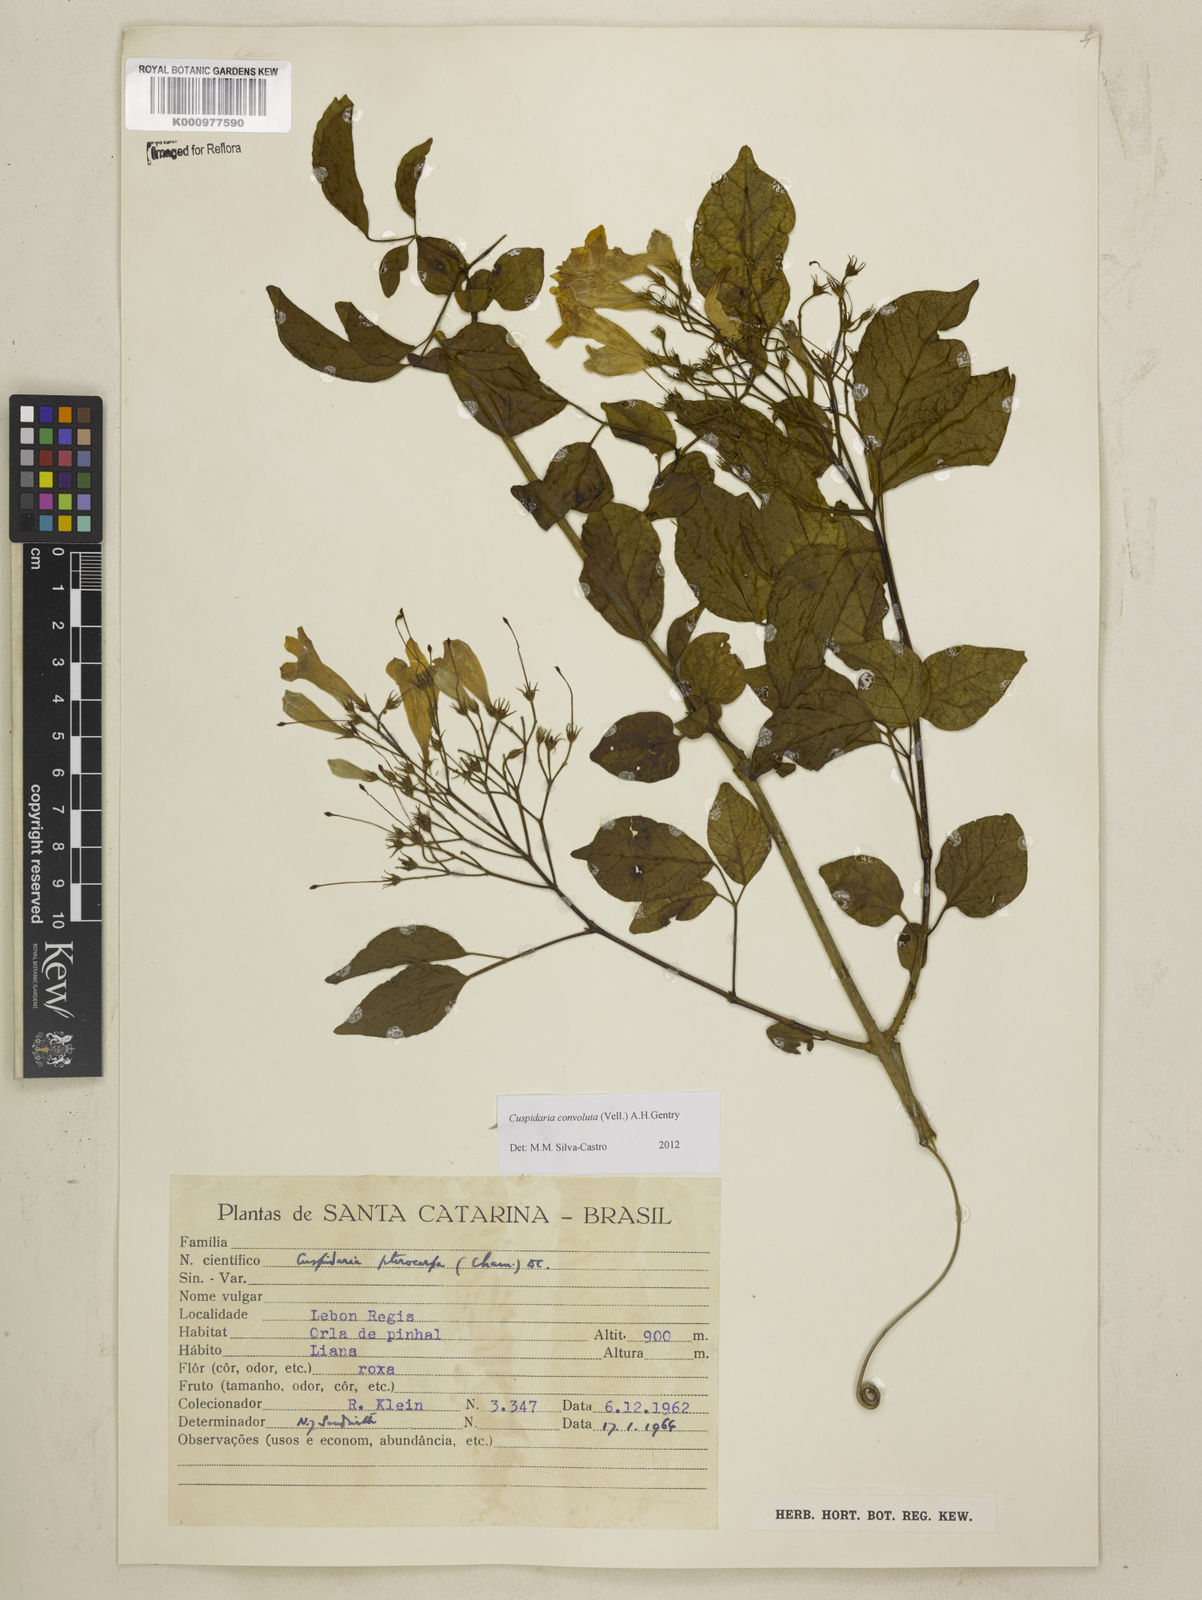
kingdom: Plantae
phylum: Tracheophyta
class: Magnoliopsida
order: Lamiales
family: Bignoniaceae
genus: Cuspidaria
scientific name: Cuspidaria convoluta
